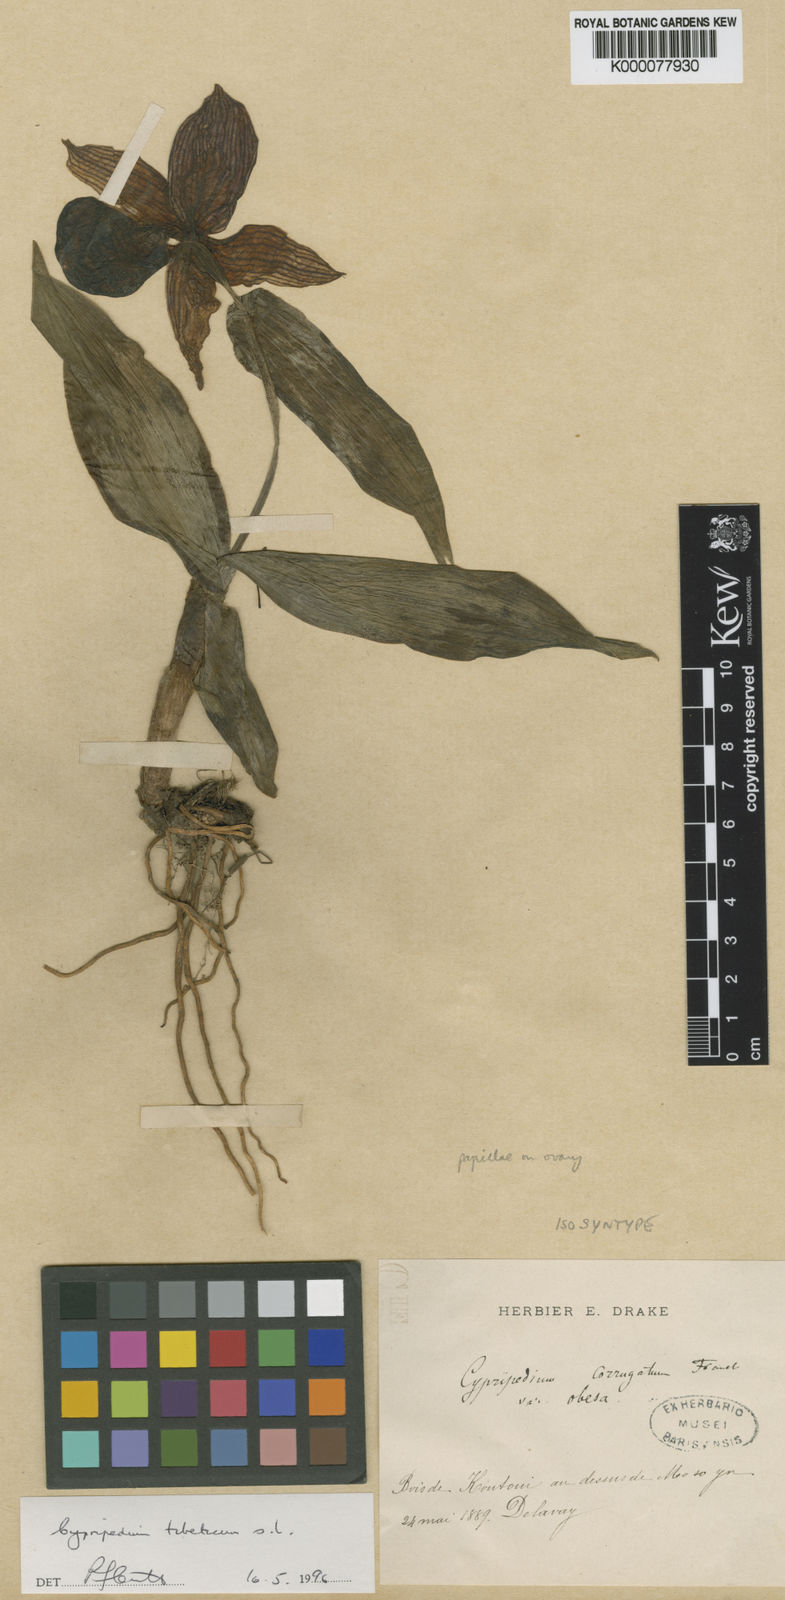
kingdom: Plantae
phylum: Tracheophyta
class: Liliopsida
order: Asparagales
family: Orchidaceae
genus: Cypripedium
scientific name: Cypripedium tibeticum
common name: Tibetan cypripedium
